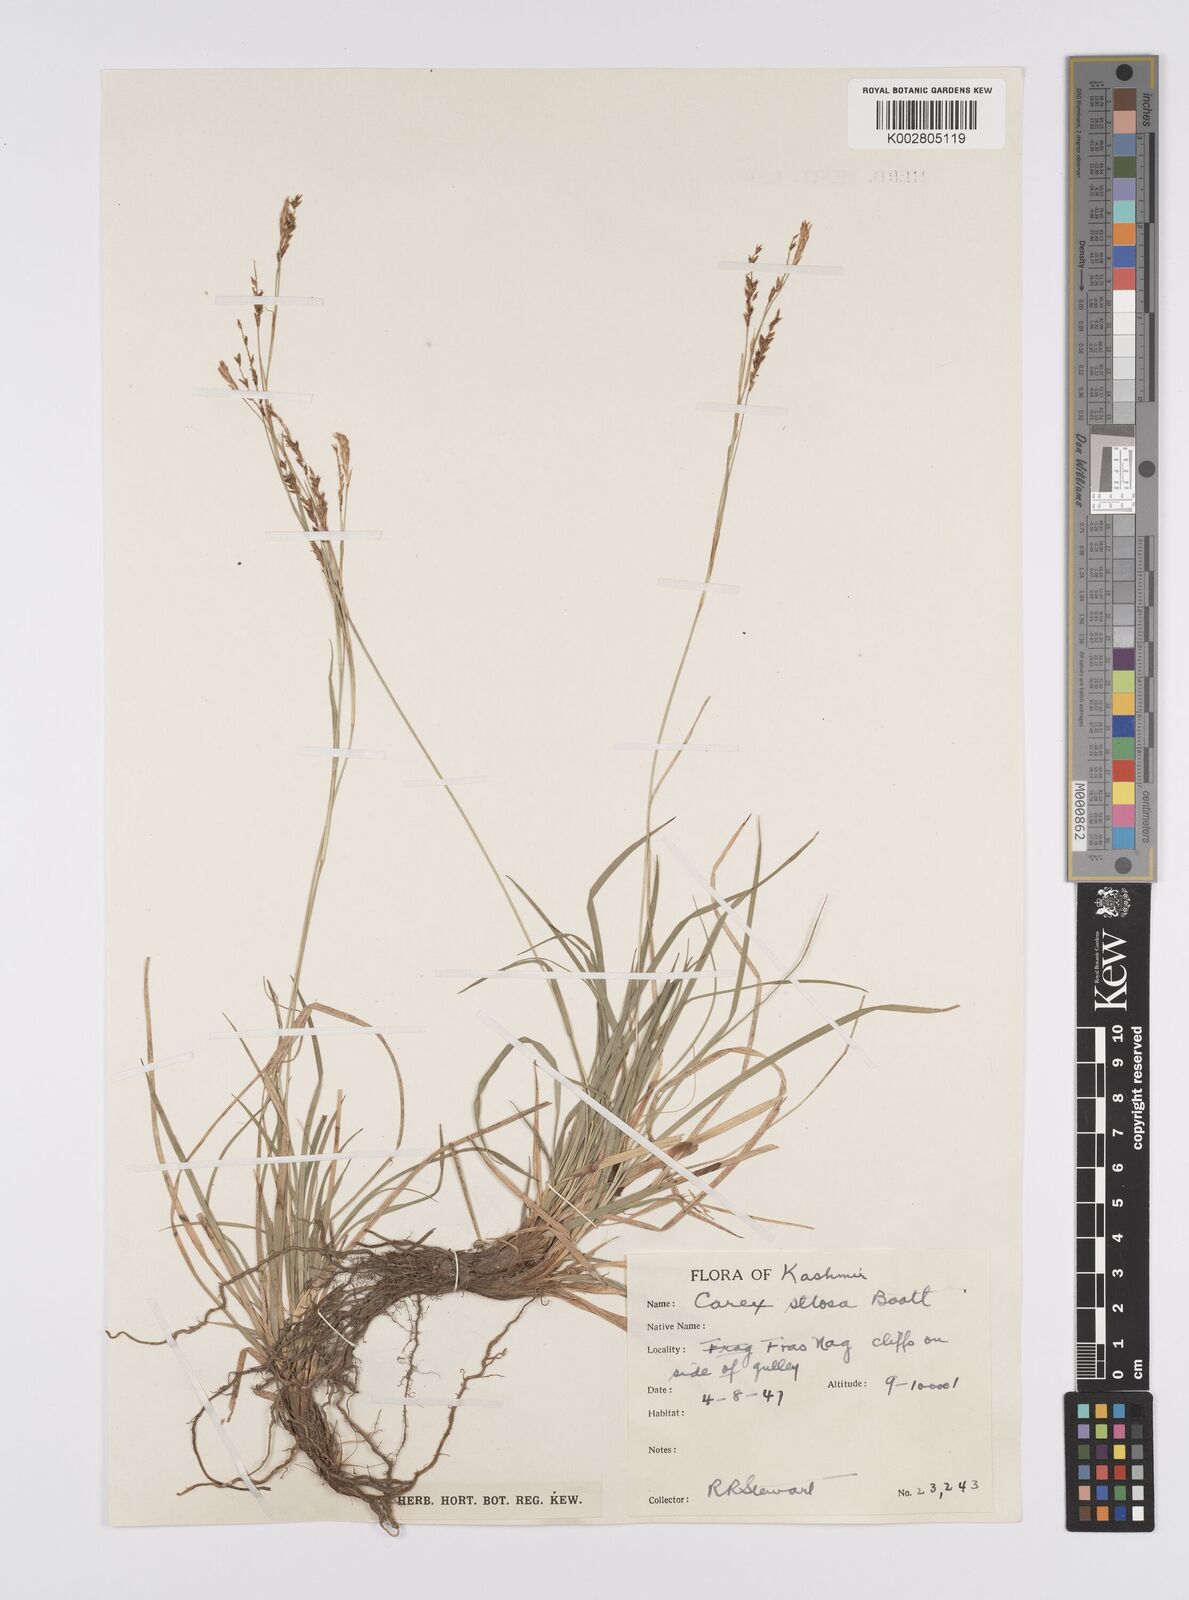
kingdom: Plantae
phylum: Tracheophyta
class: Liliopsida
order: Poales
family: Cyperaceae
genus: Carex
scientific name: Carex setosa
